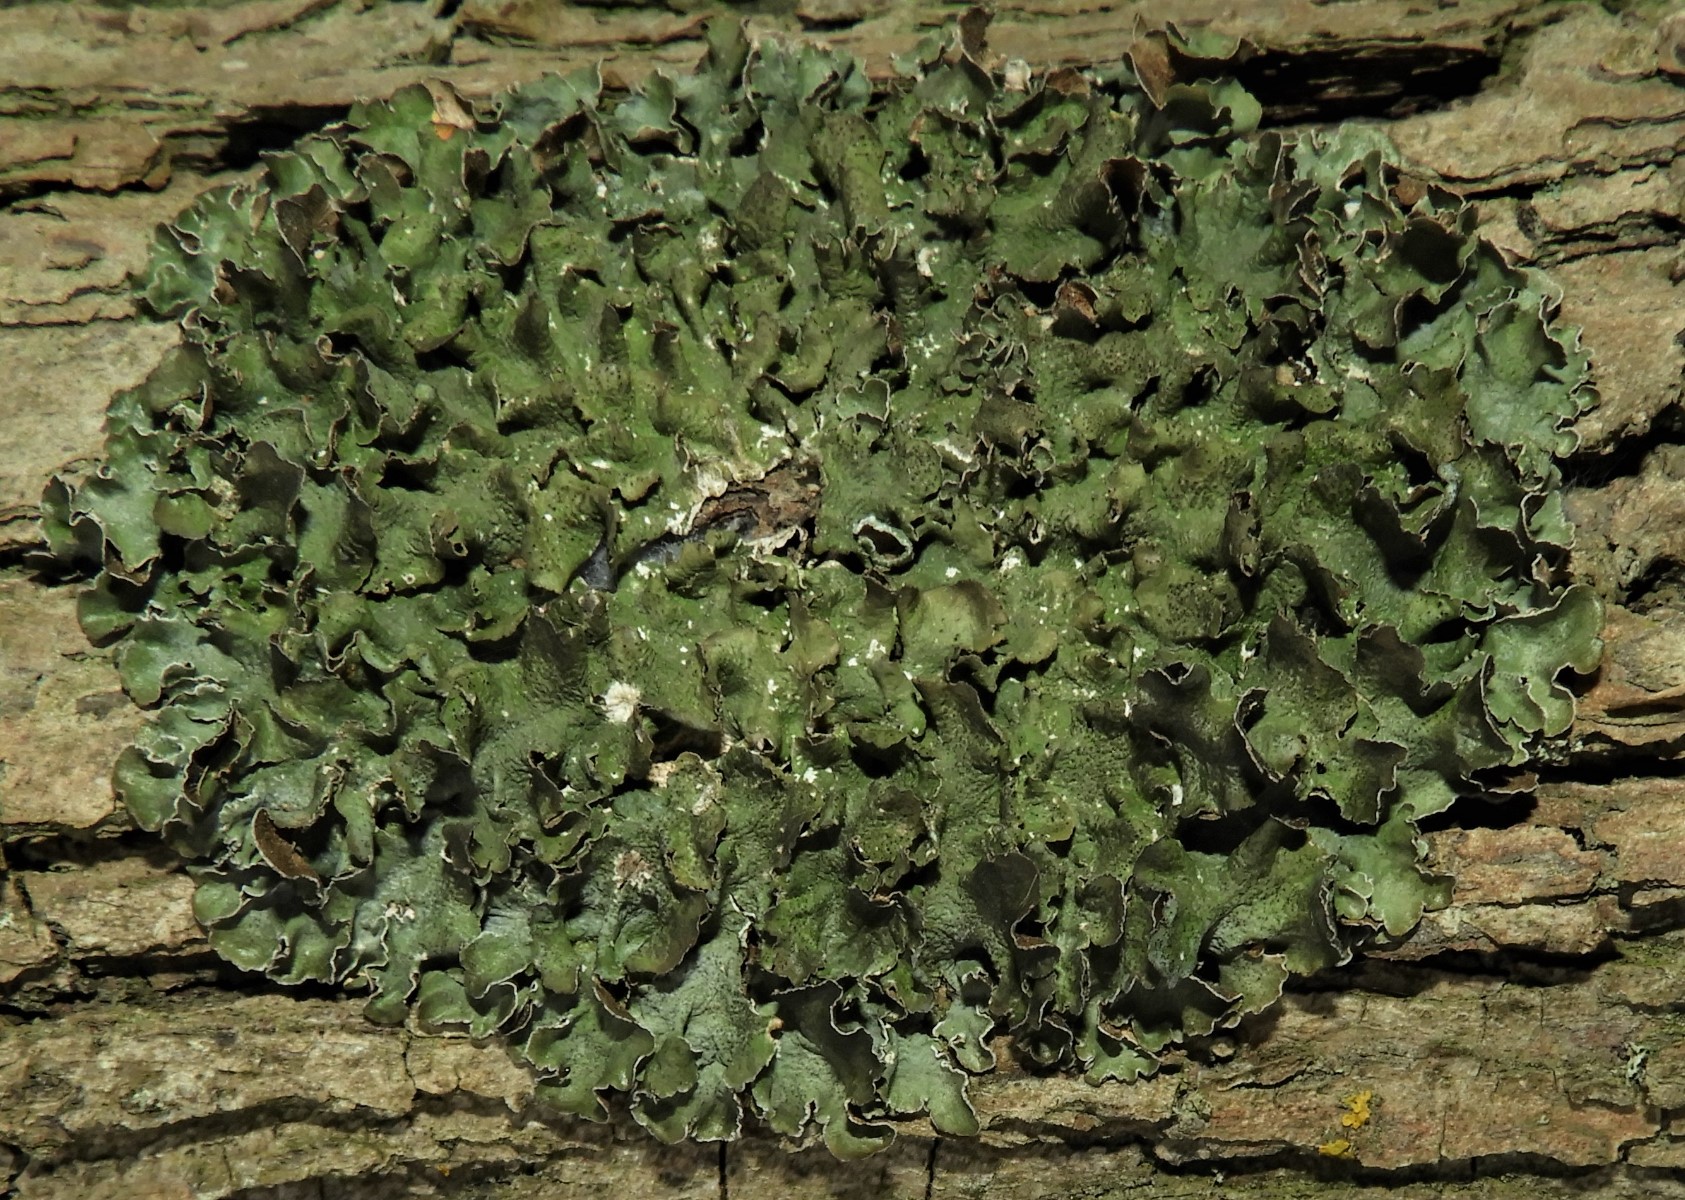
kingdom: Fungi
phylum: Ascomycota
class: Lecanoromycetes
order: Lecanorales
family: Parmeliaceae
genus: Pleurosticta
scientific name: Pleurosticta acetabulum
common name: stor skållav
